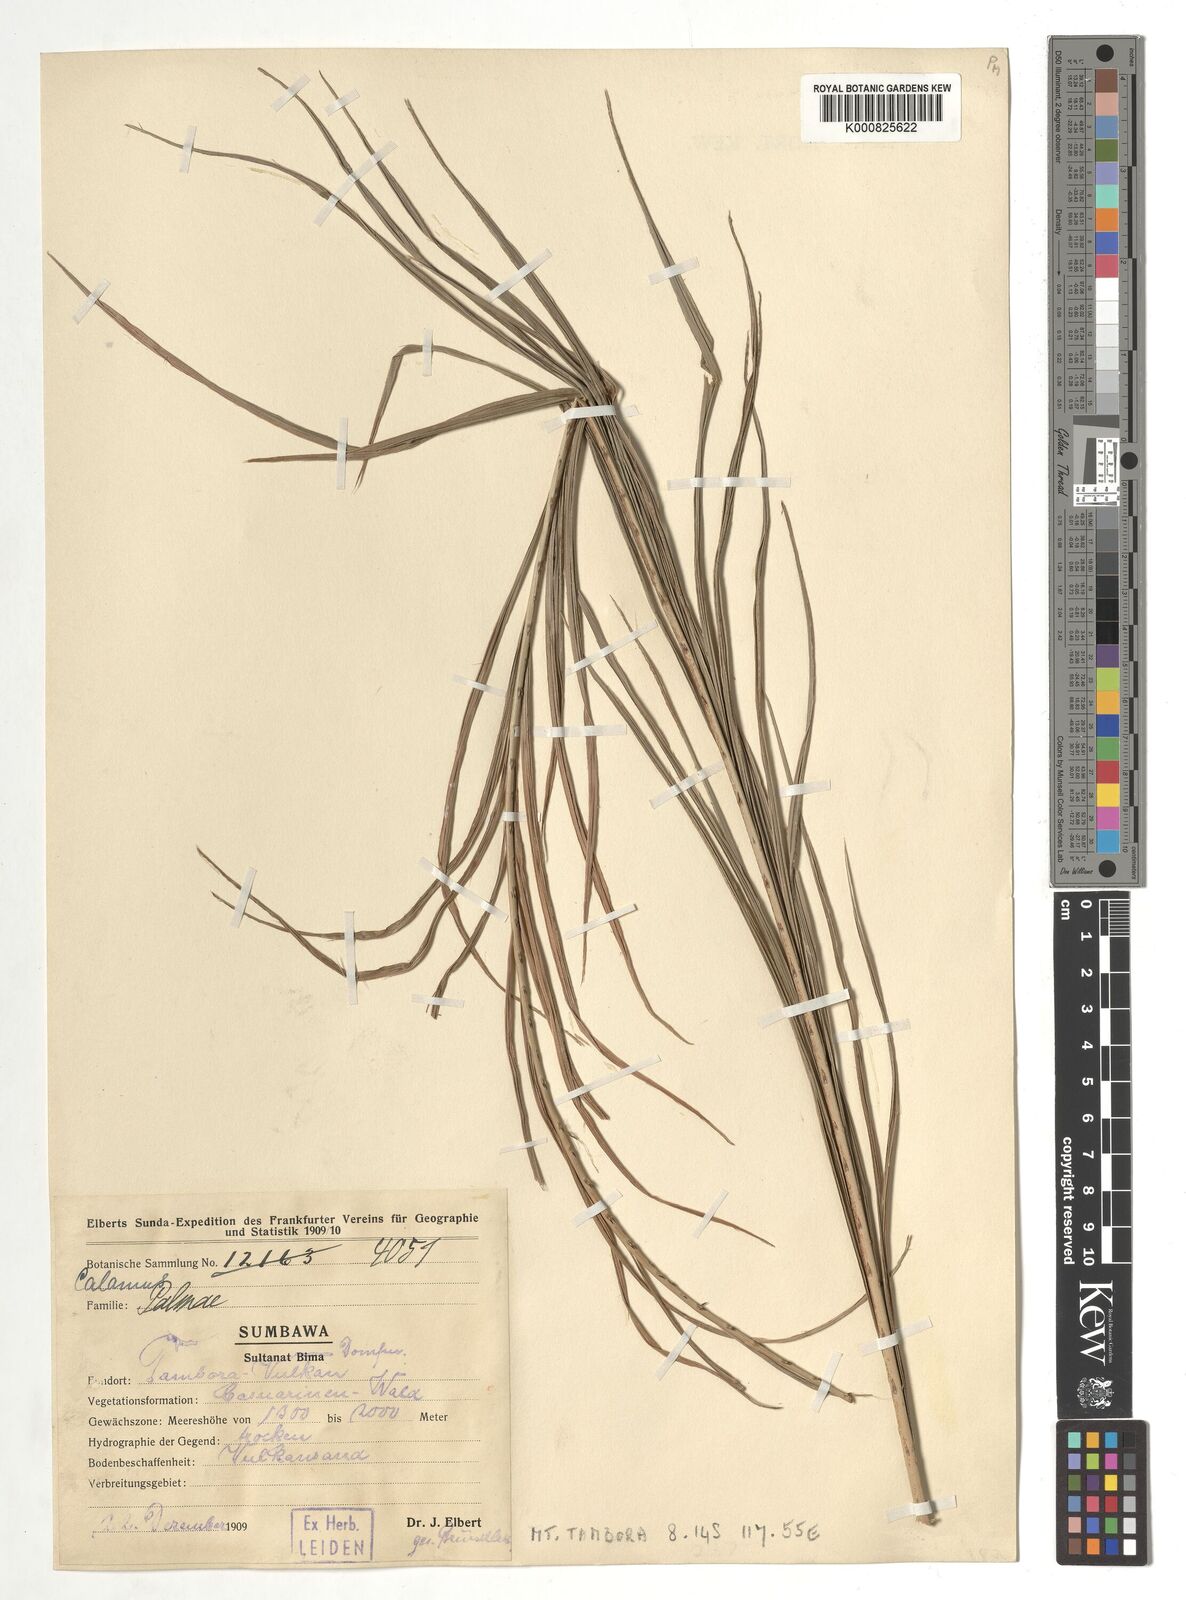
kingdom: Plantae
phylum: Tracheophyta
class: Liliopsida
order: Arecales
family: Arecaceae
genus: Calamus
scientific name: Calamus
